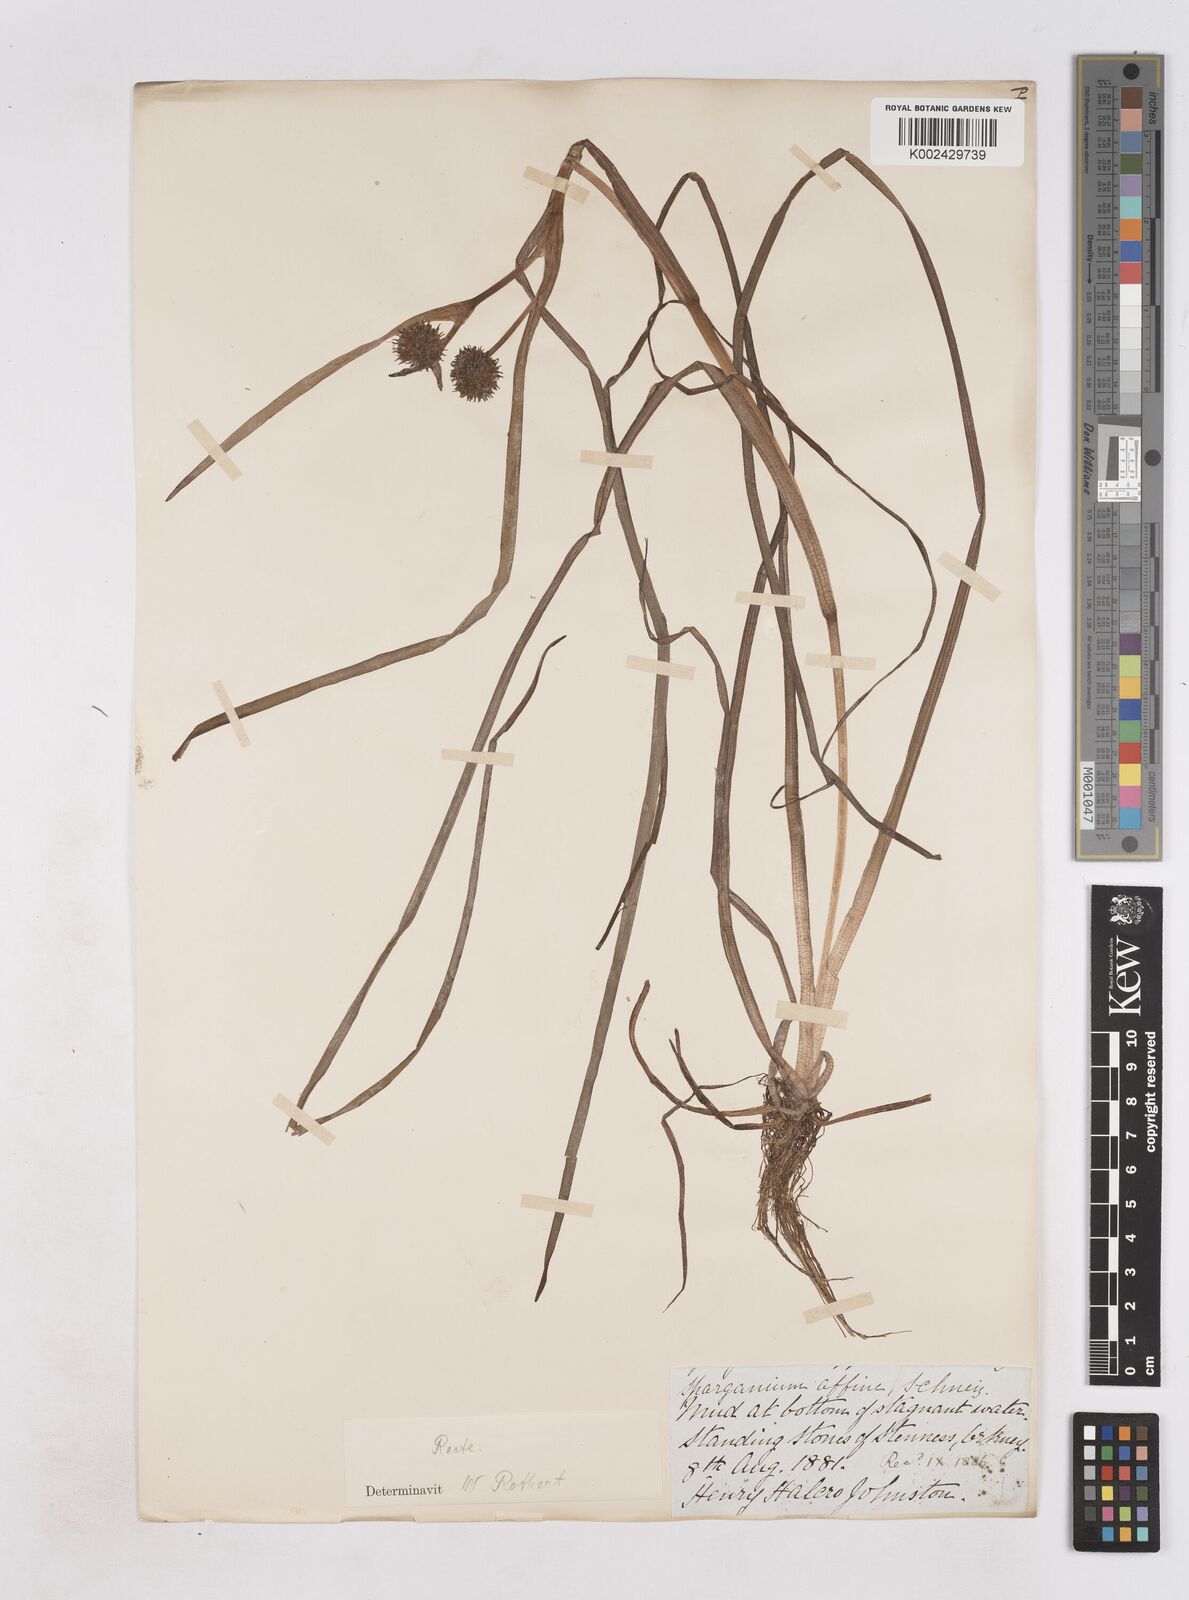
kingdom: Plantae
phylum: Tracheophyta
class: Liliopsida
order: Poales
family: Typhaceae
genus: Sparganium
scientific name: Sparganium angustifolium
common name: Floating bur-reed
